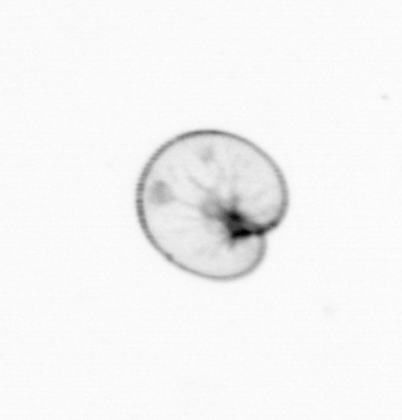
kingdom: Chromista
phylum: Myzozoa
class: Dinophyceae
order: Noctilucales
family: Noctilucaceae
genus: Noctiluca
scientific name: Noctiluca scintillans
